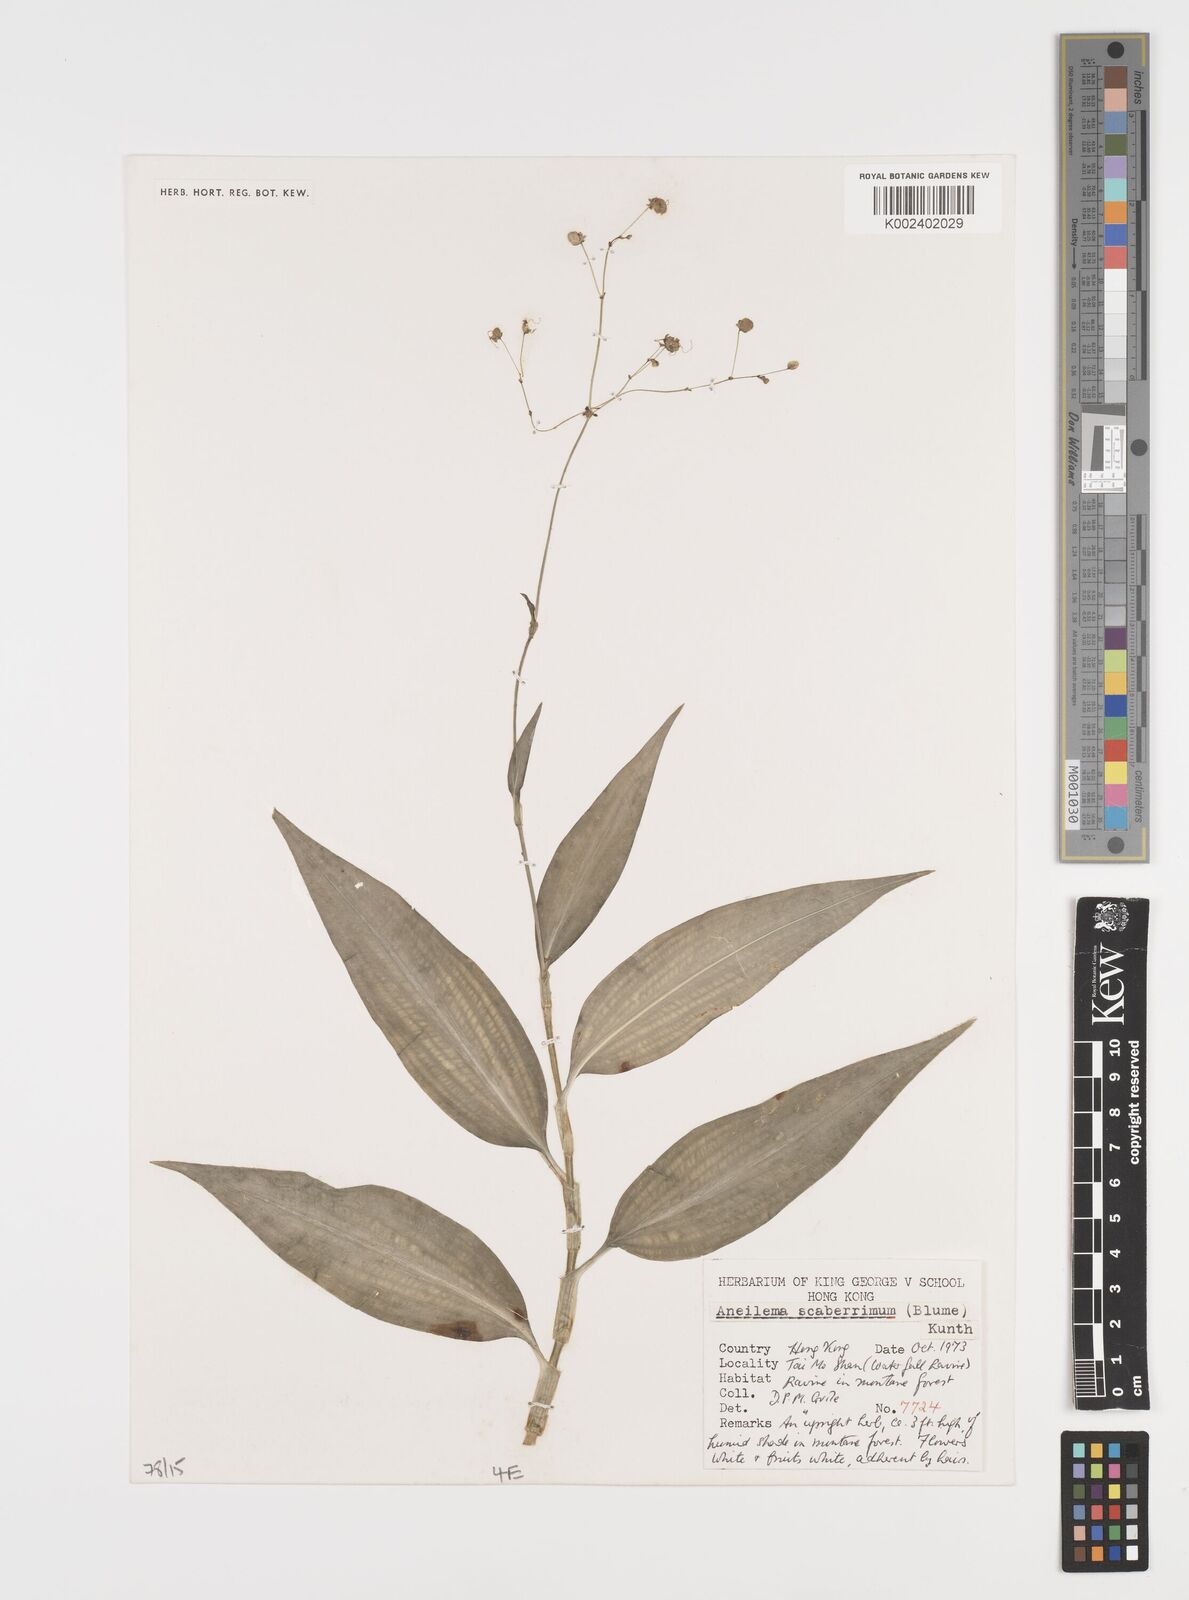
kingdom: Plantae
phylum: Tracheophyta
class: Liliopsida
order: Commelinales
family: Commelinaceae
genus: Rhopalephora
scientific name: Rhopalephora scaberrima
